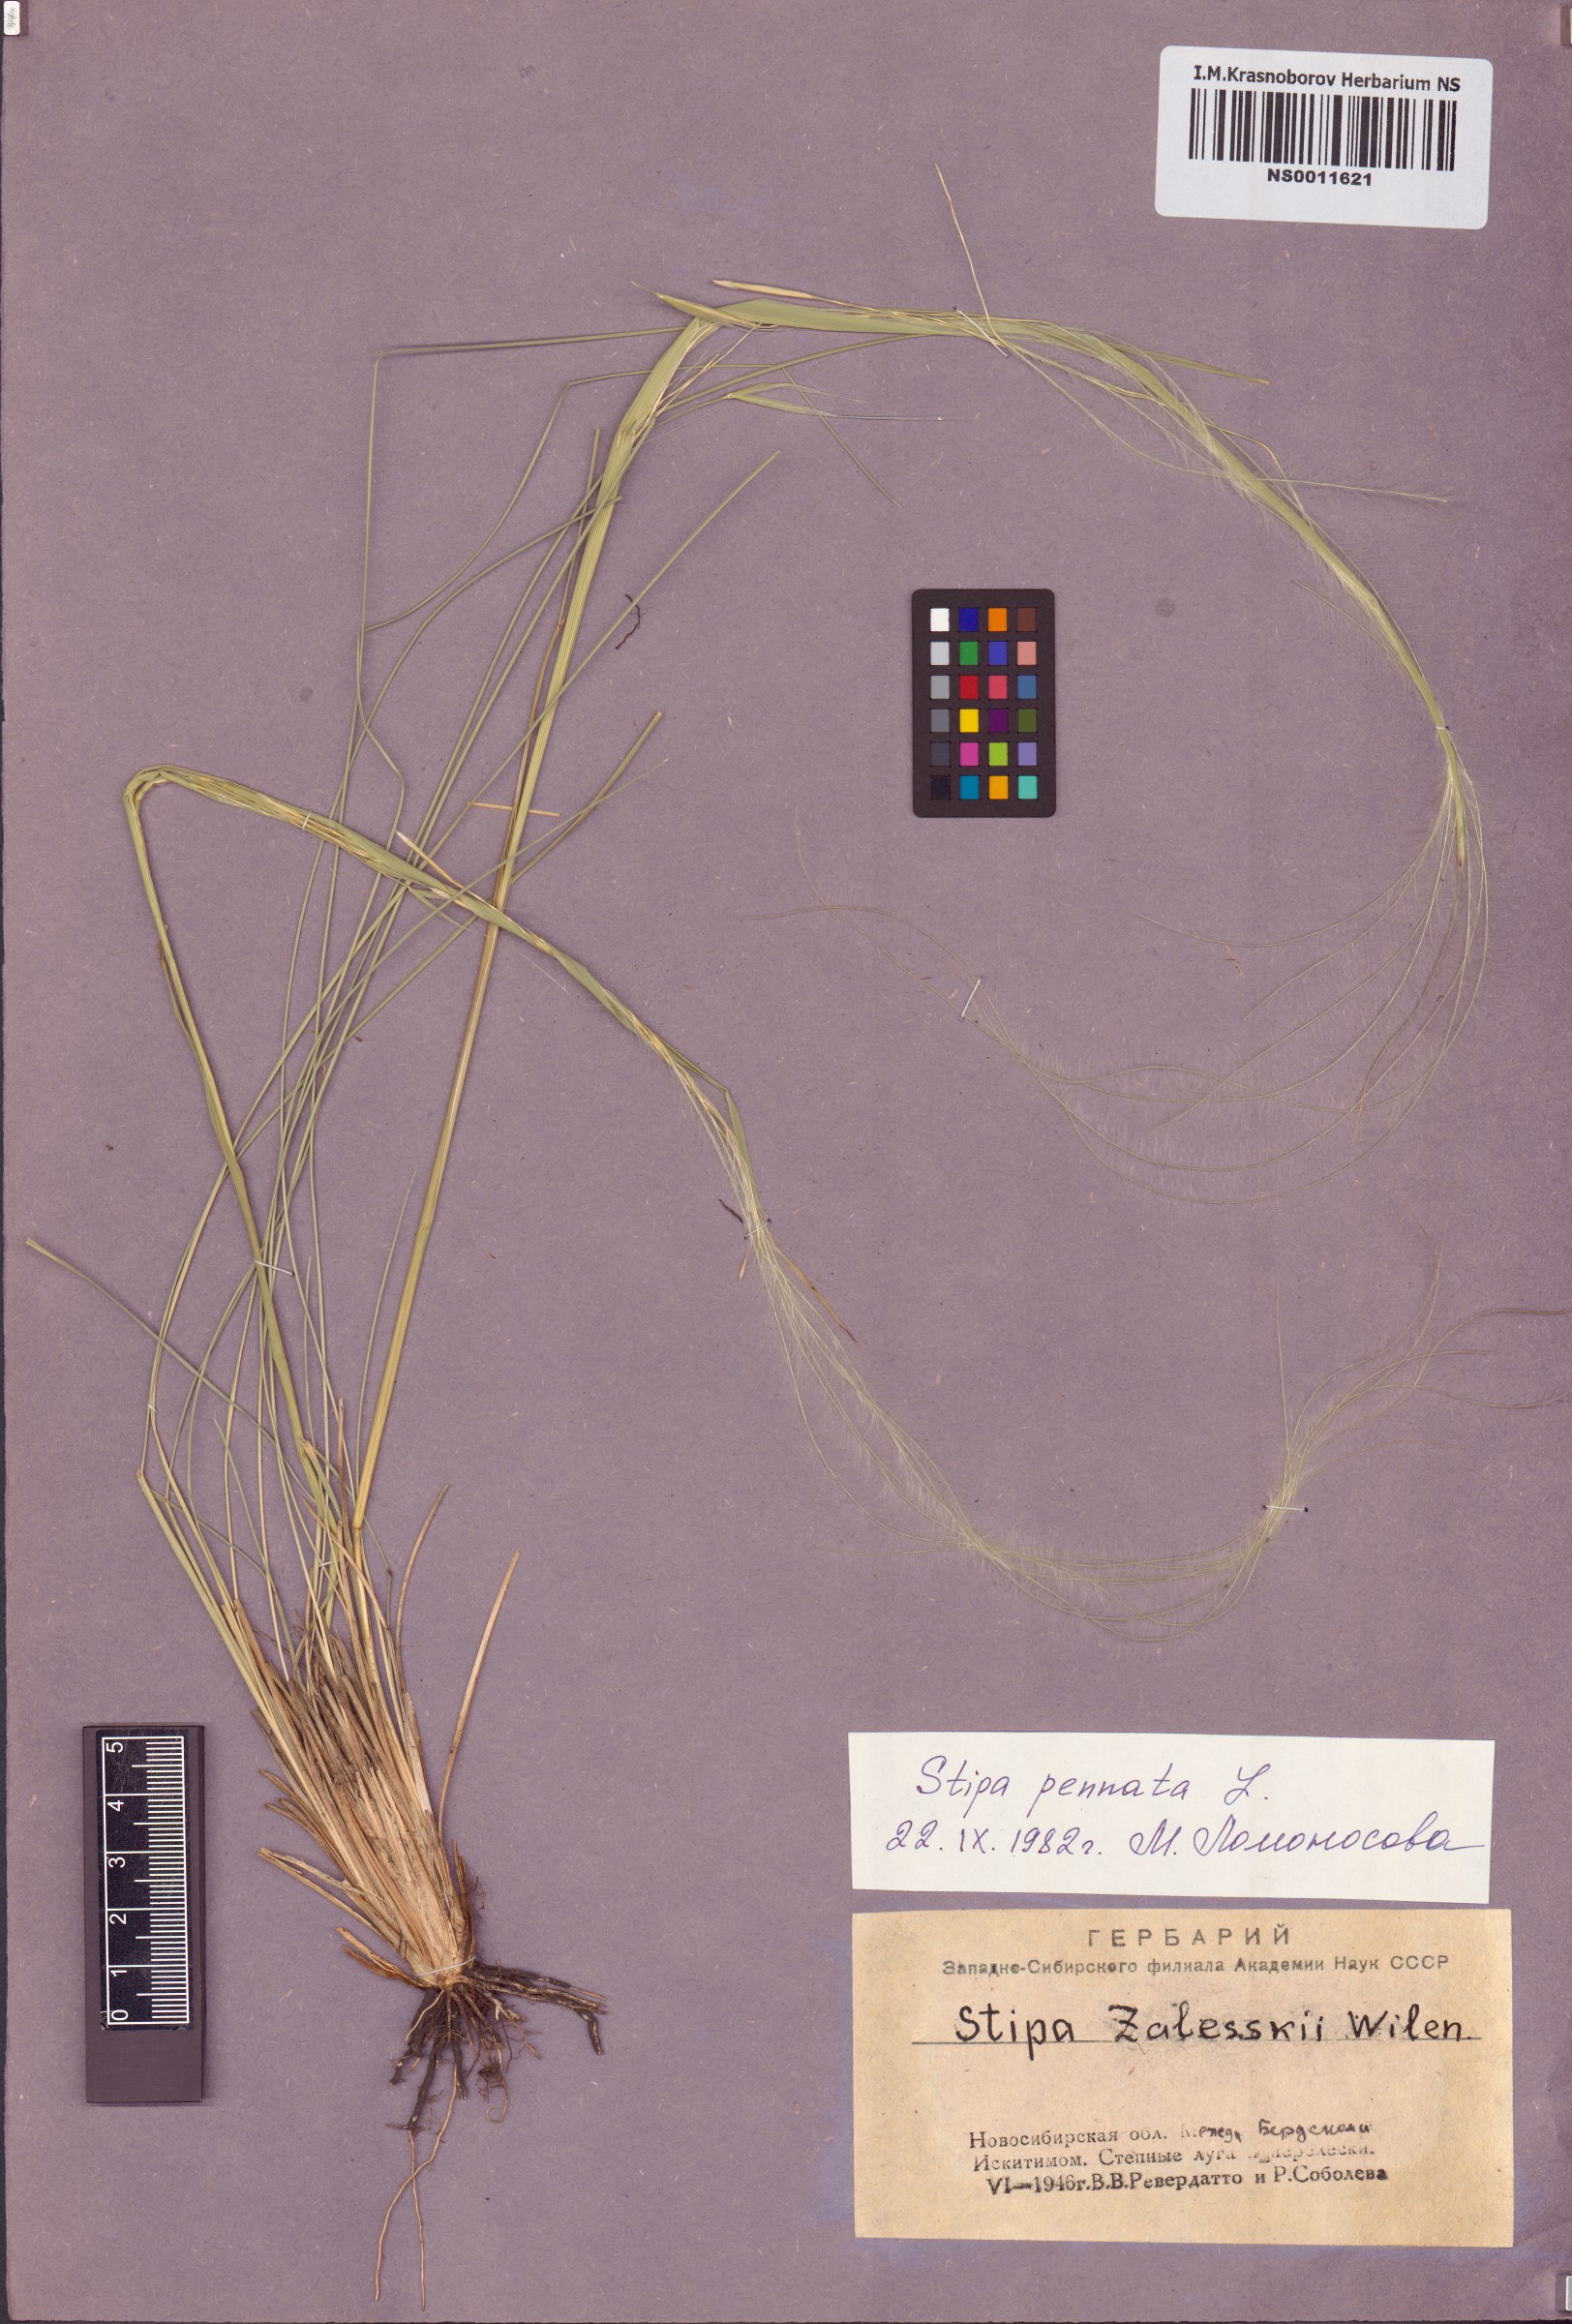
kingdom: Plantae
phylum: Tracheophyta
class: Liliopsida
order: Poales
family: Poaceae
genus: Stipa
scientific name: Stipa pennata
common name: European feather grass
